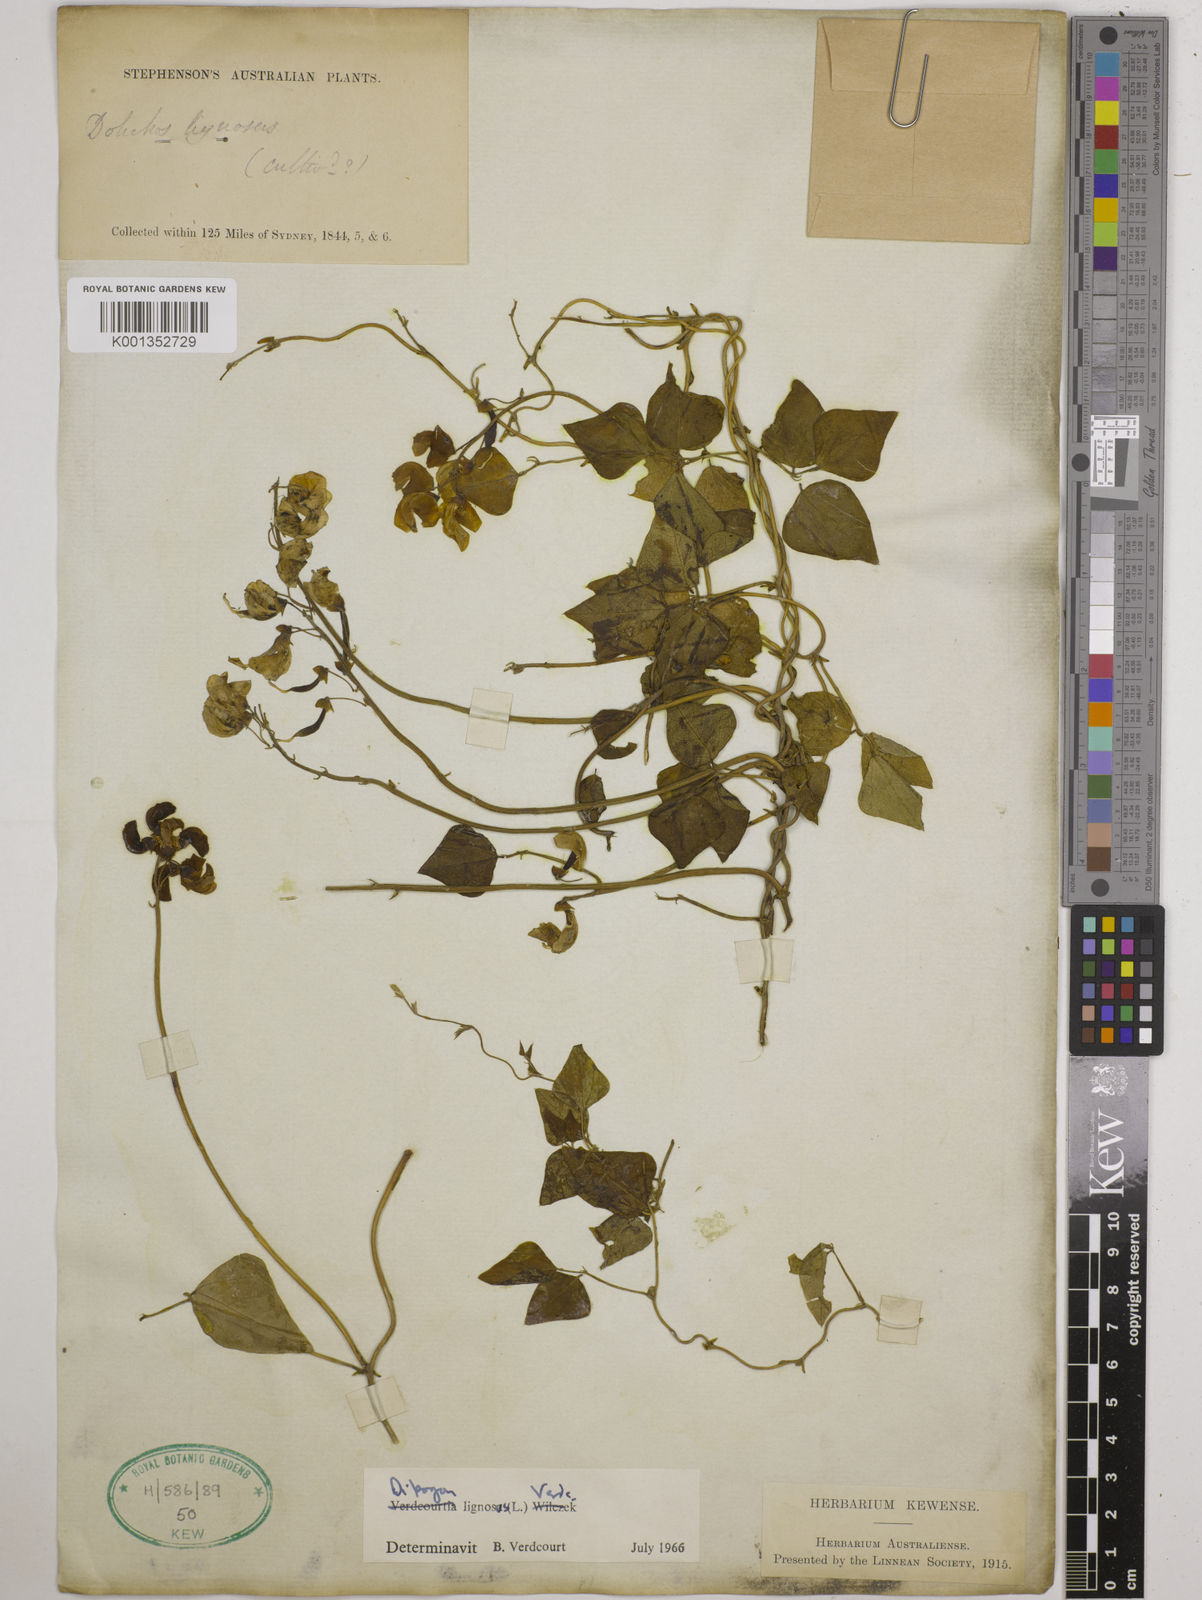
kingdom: Plantae
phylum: Tracheophyta
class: Magnoliopsida
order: Fabales
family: Fabaceae
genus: Dipogon
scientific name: Dipogon lignosus
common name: Okie bean
